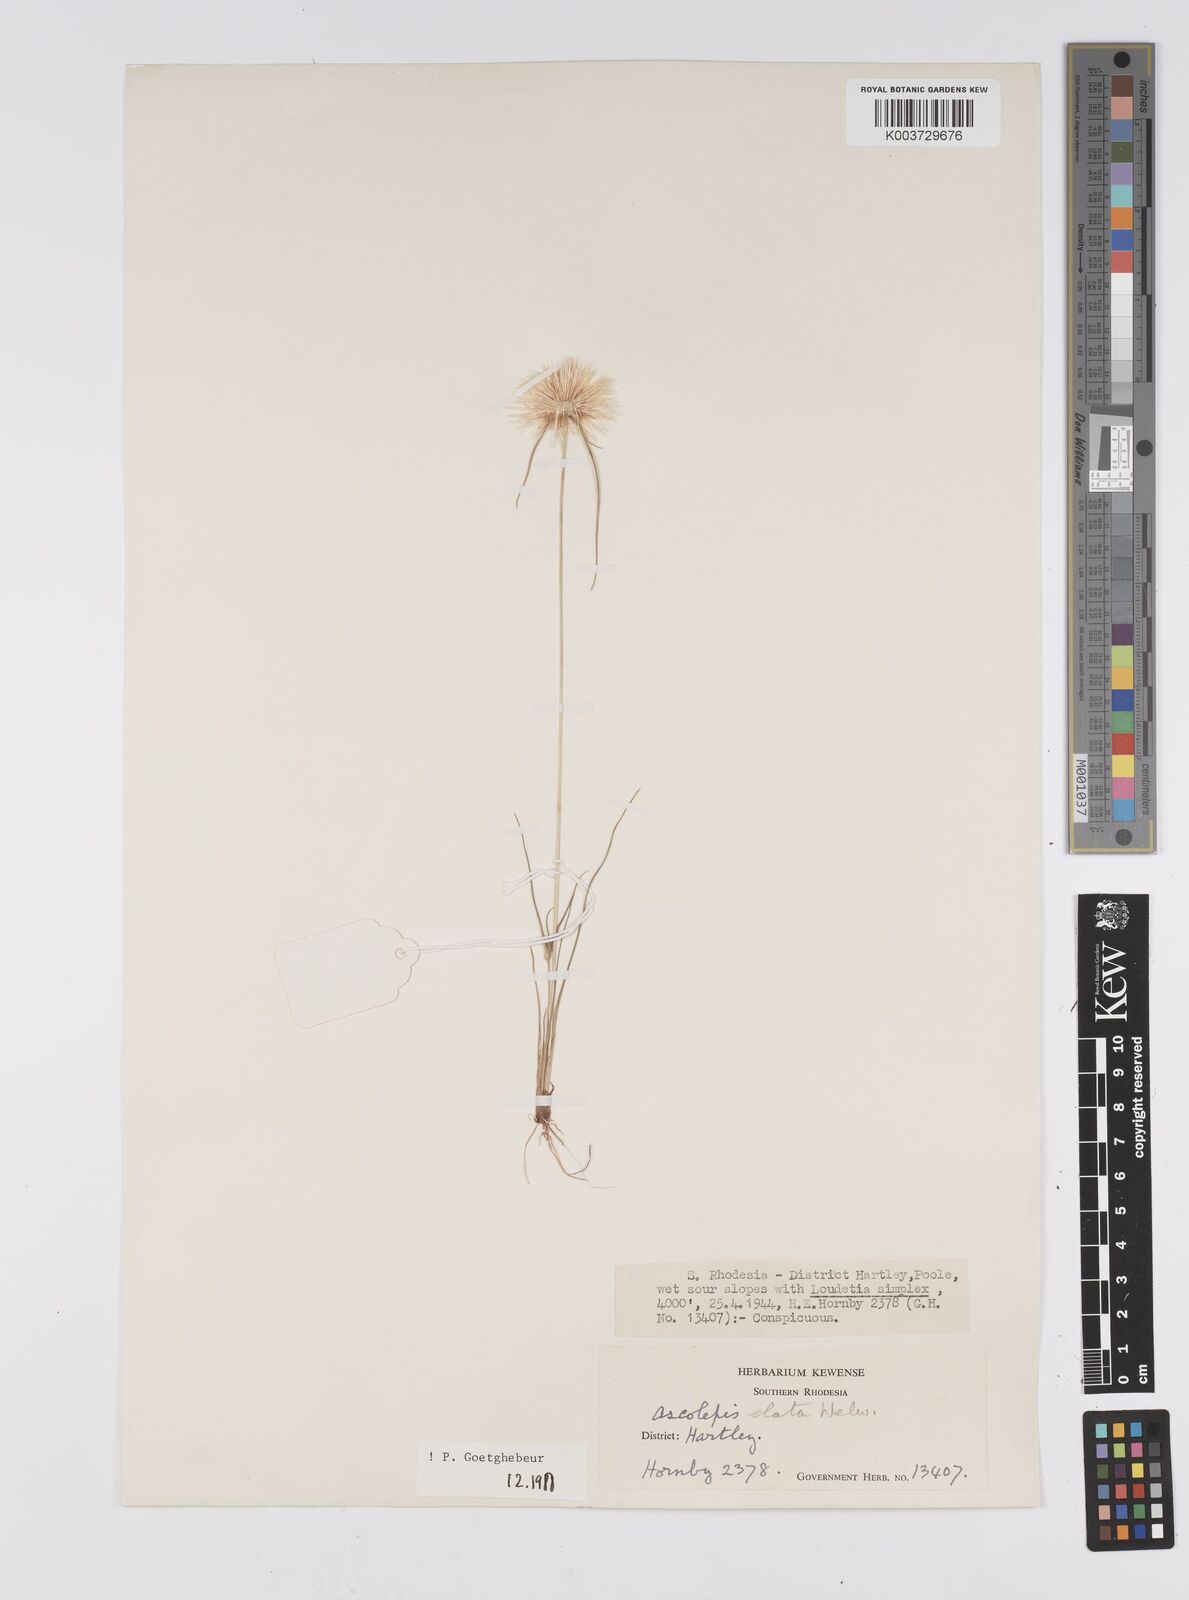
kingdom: Plantae
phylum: Tracheophyta
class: Liliopsida
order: Poales
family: Cyperaceae
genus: Cyperus
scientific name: Cyperus
